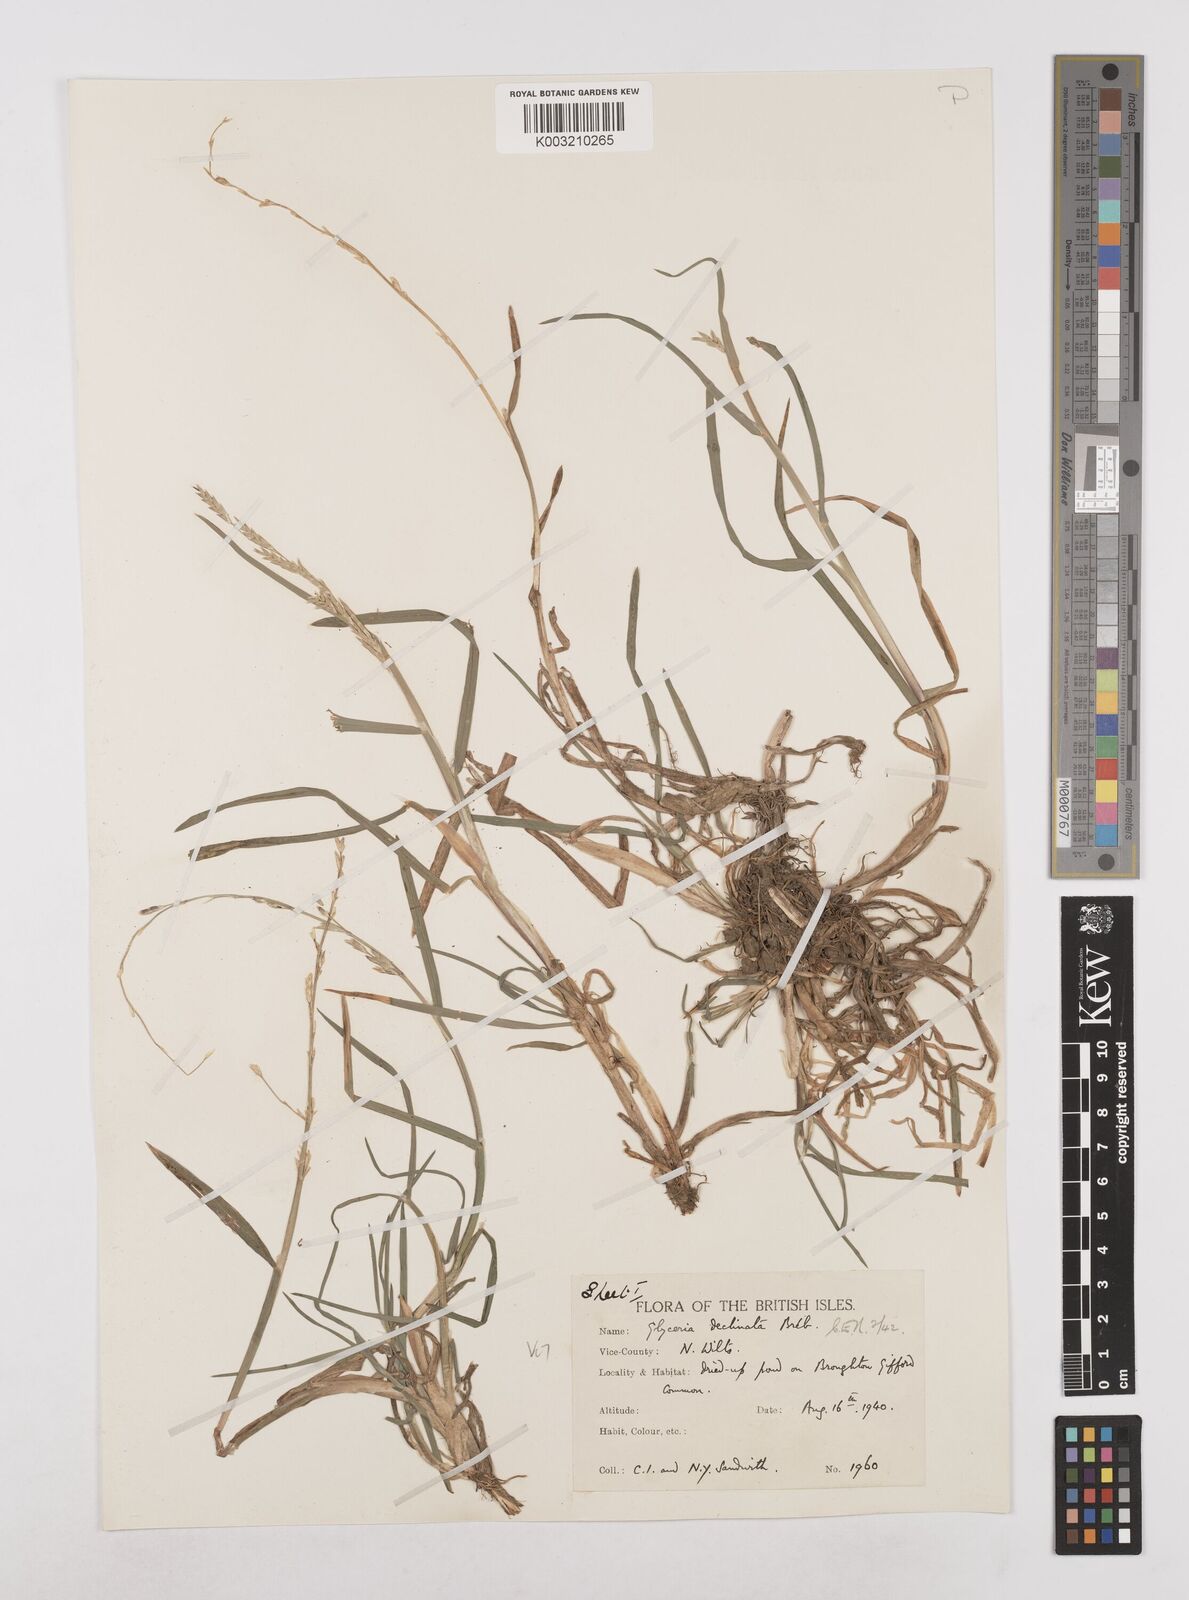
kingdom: Plantae
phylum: Tracheophyta
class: Liliopsida
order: Poales
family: Poaceae
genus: Glyceria
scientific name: Glyceria declinata
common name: Small sweet-grass
